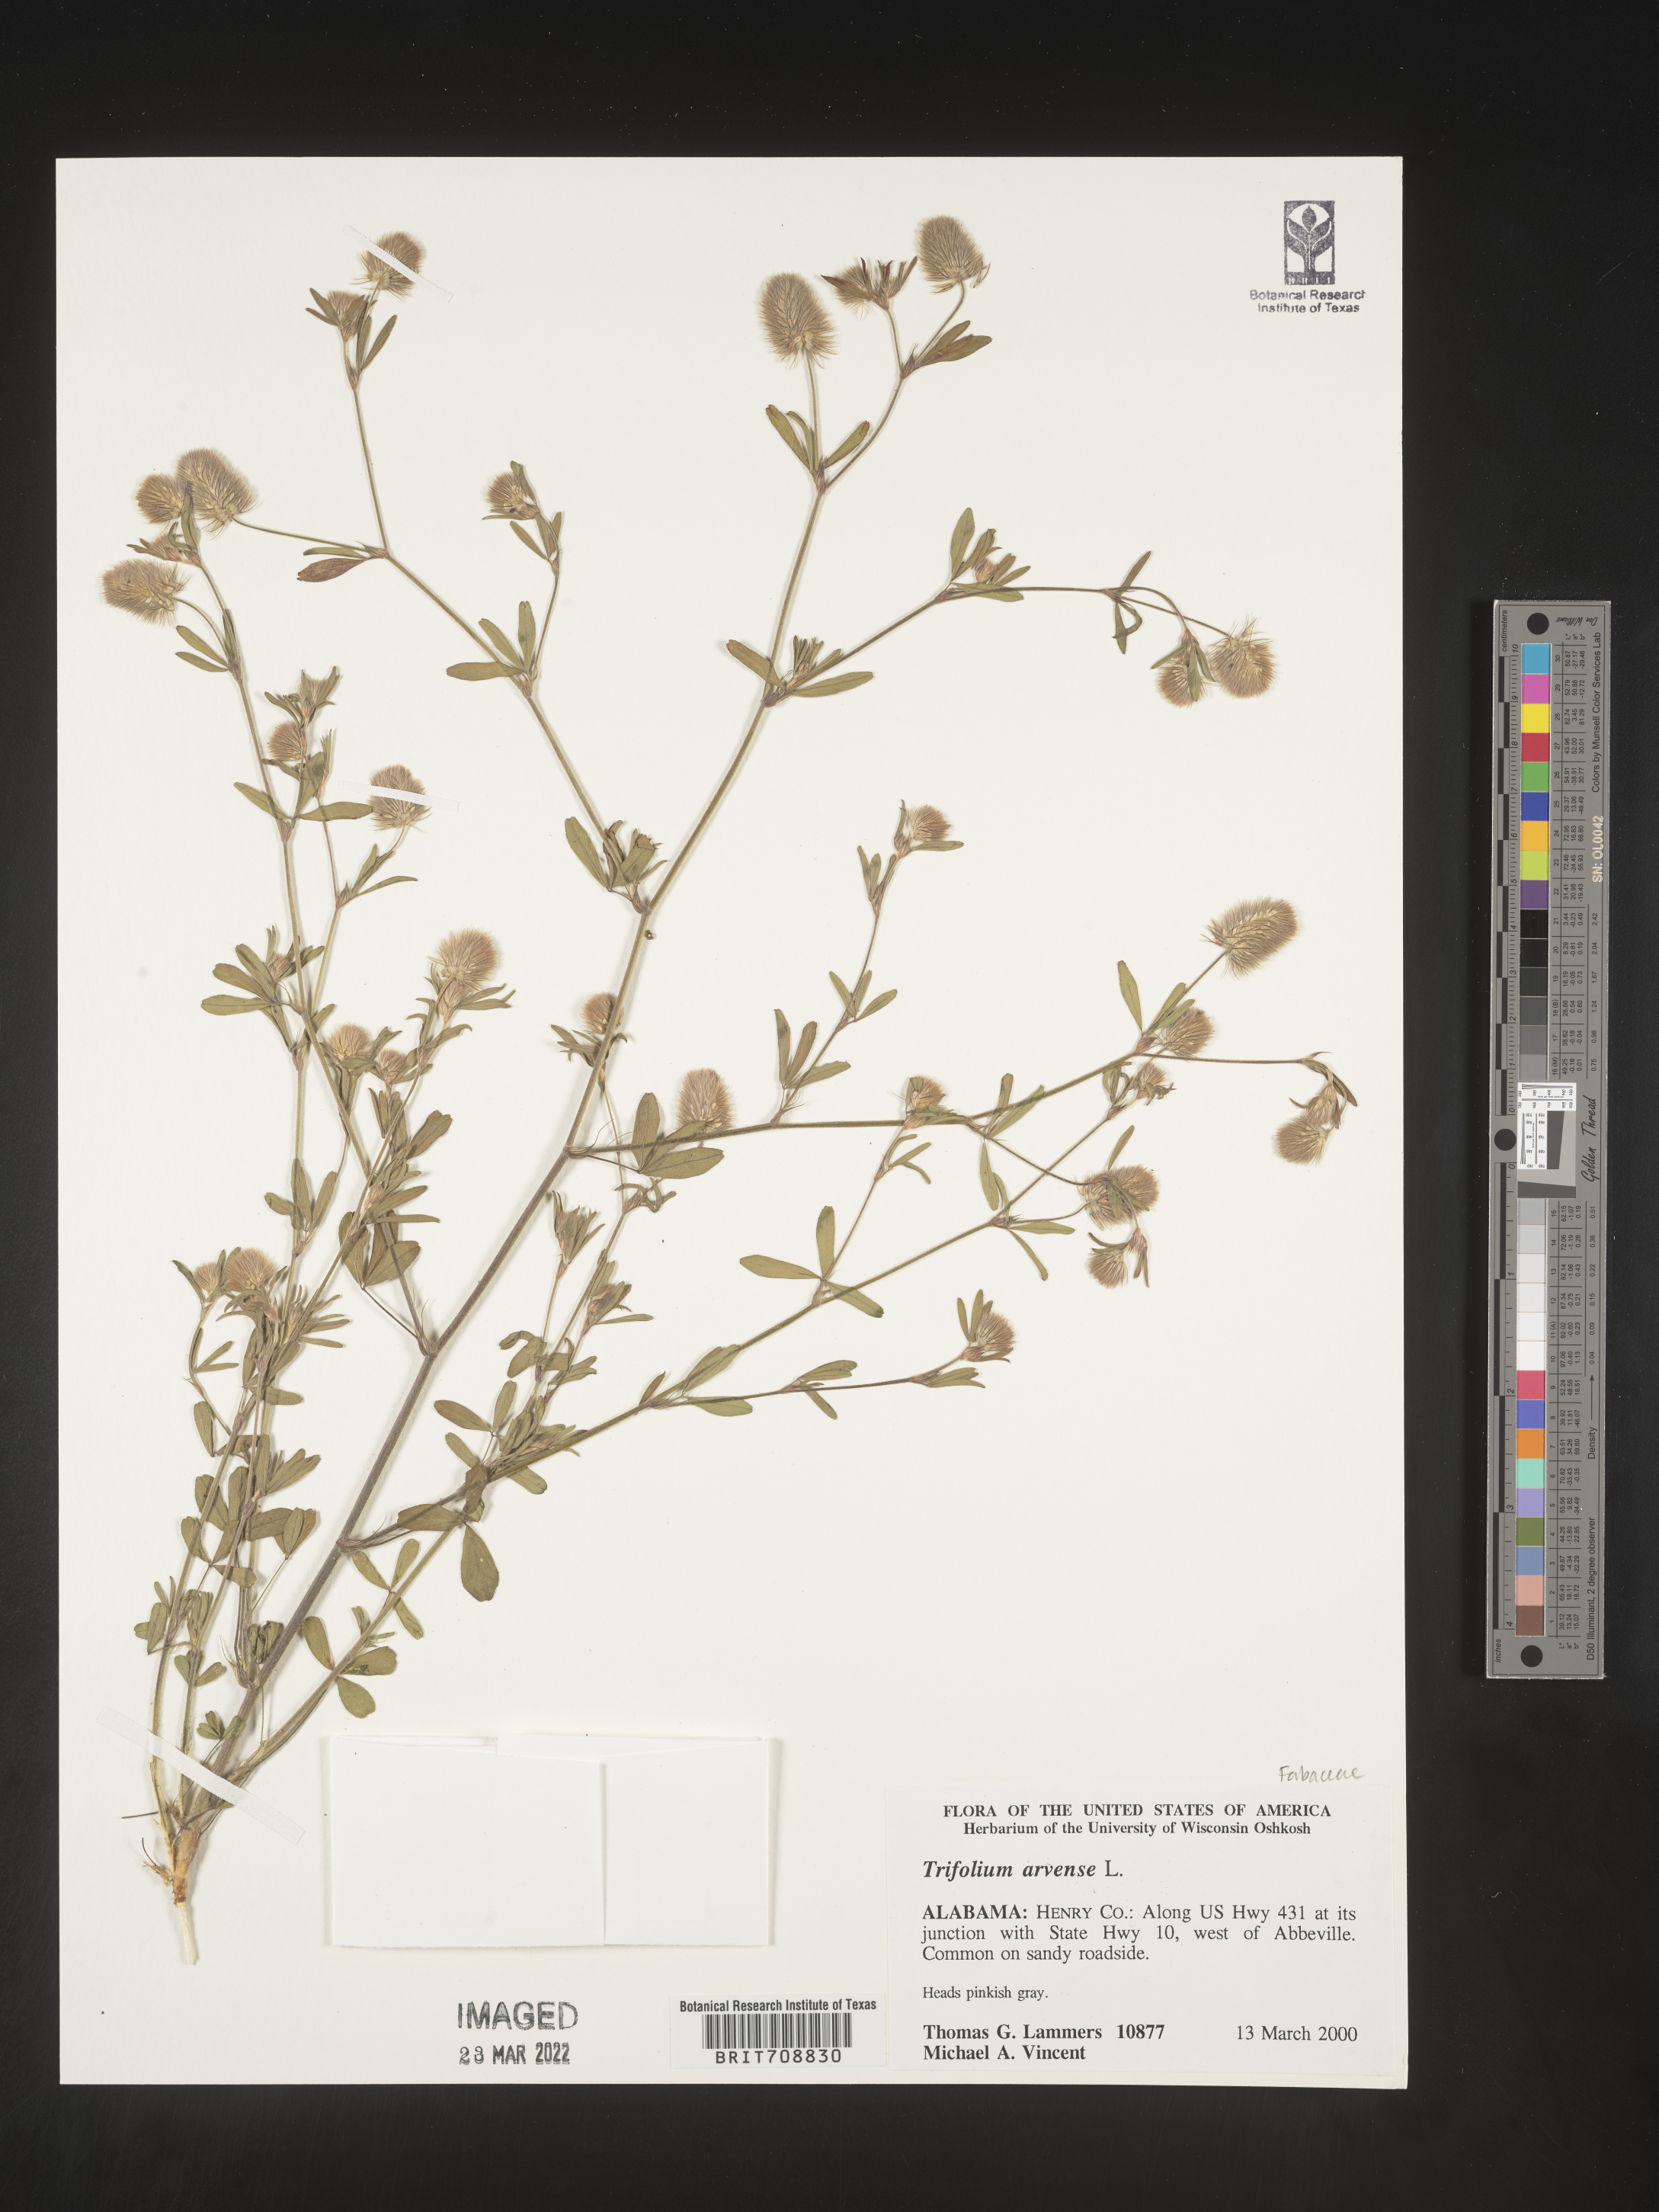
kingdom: Plantae
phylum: Tracheophyta
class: Magnoliopsida
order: Fabales
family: Fabaceae
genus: Trifolium
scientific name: Trifolium
